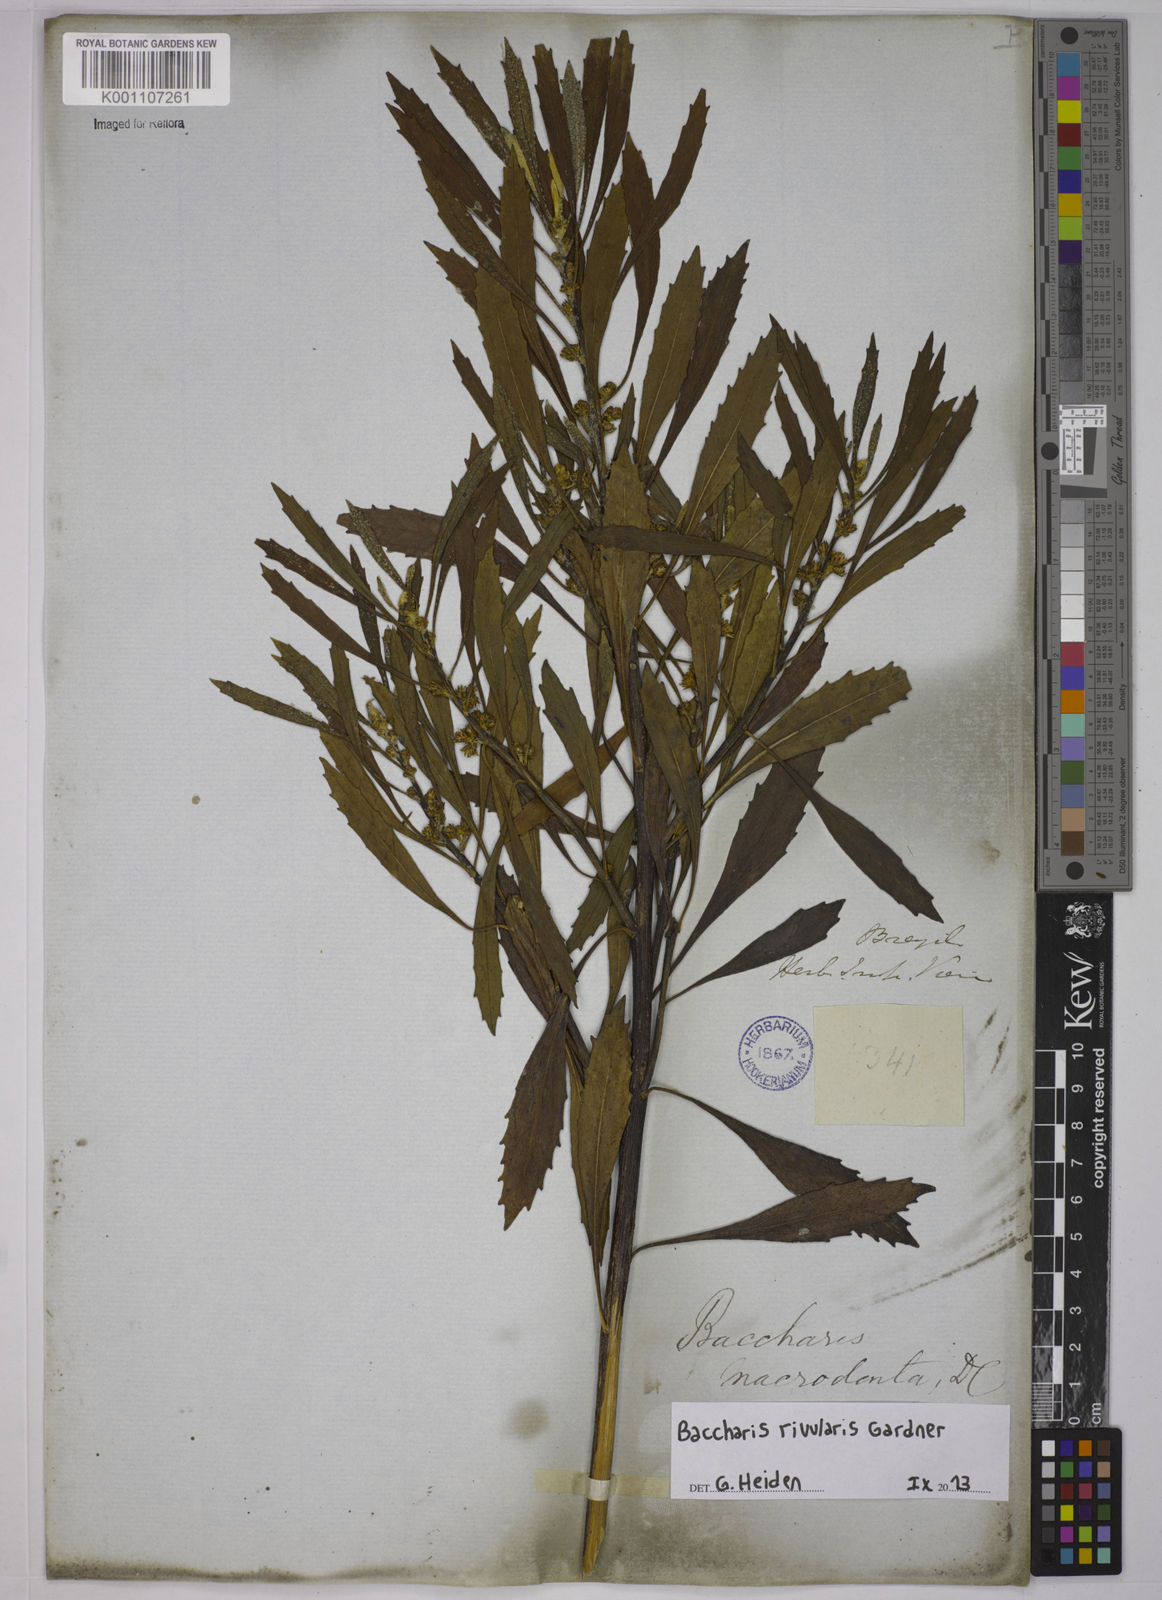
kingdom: Plantae
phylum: Tracheophyta
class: Magnoliopsida
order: Asterales
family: Asteraceae
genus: Baccharis
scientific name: Baccharis rivularis
